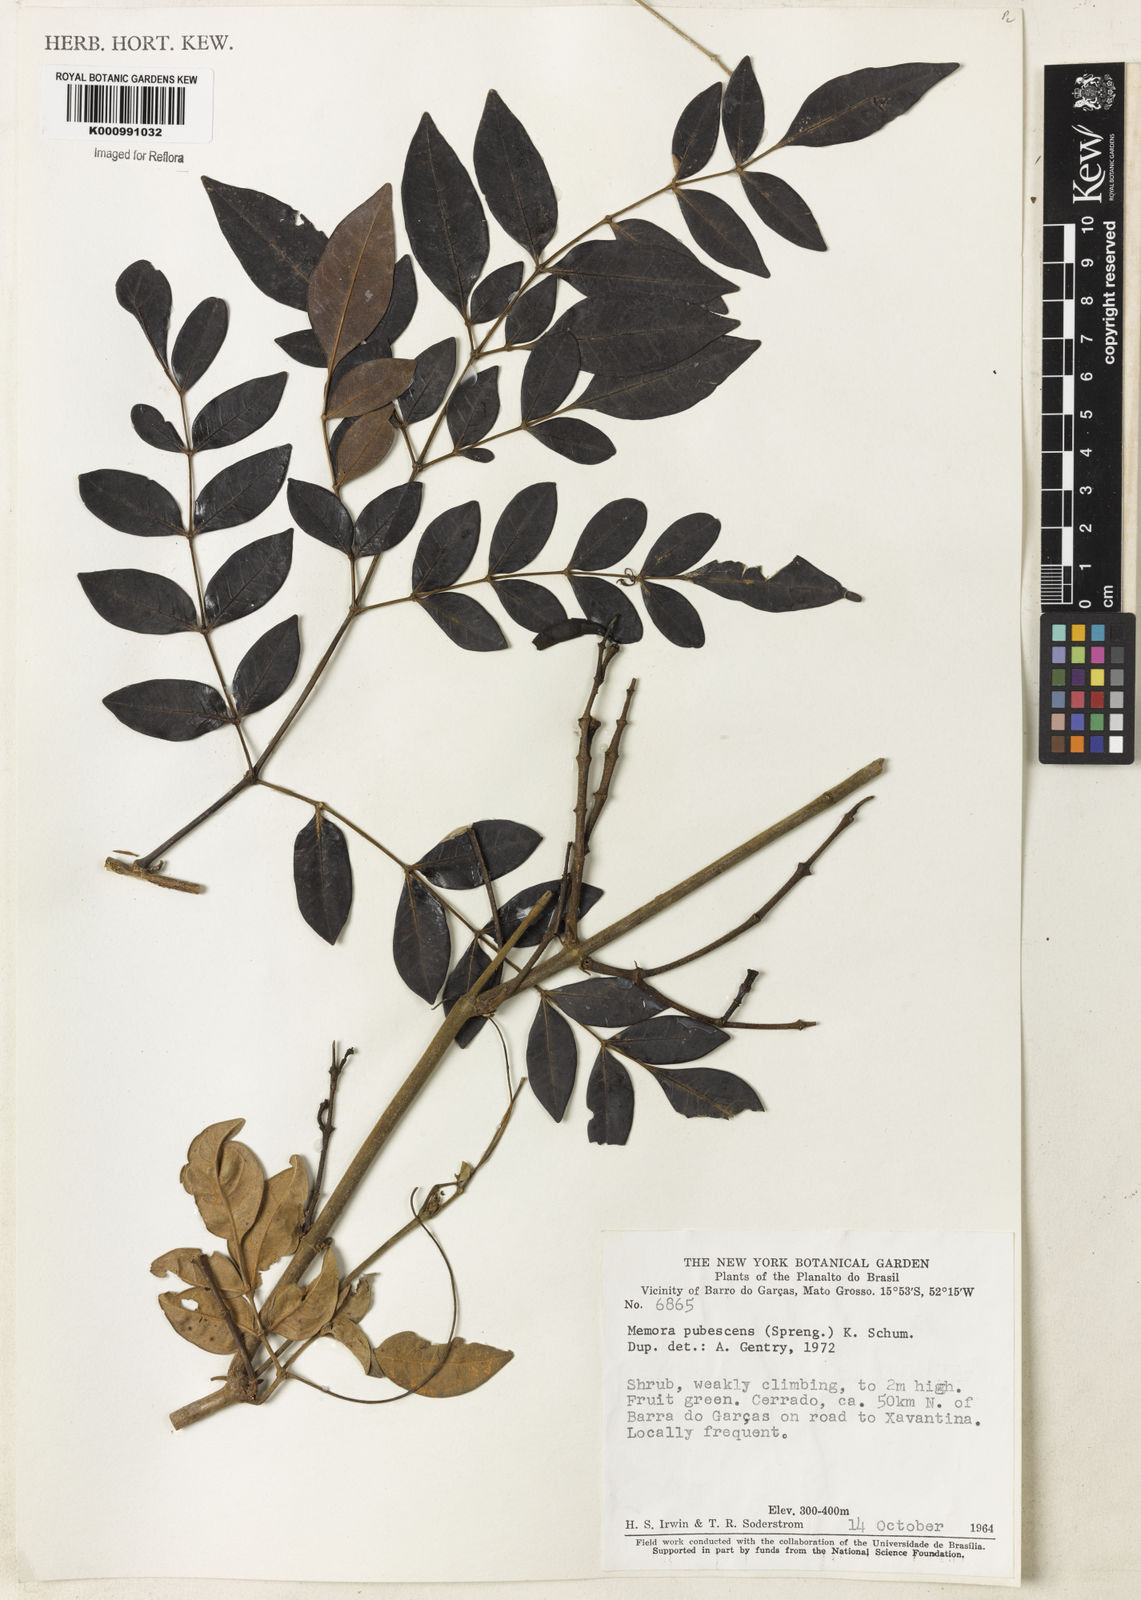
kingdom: Plantae
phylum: Tracheophyta
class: Magnoliopsida
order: Lamiales
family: Bignoniaceae
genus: Adenocalymma
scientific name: Adenocalymma pubescens
